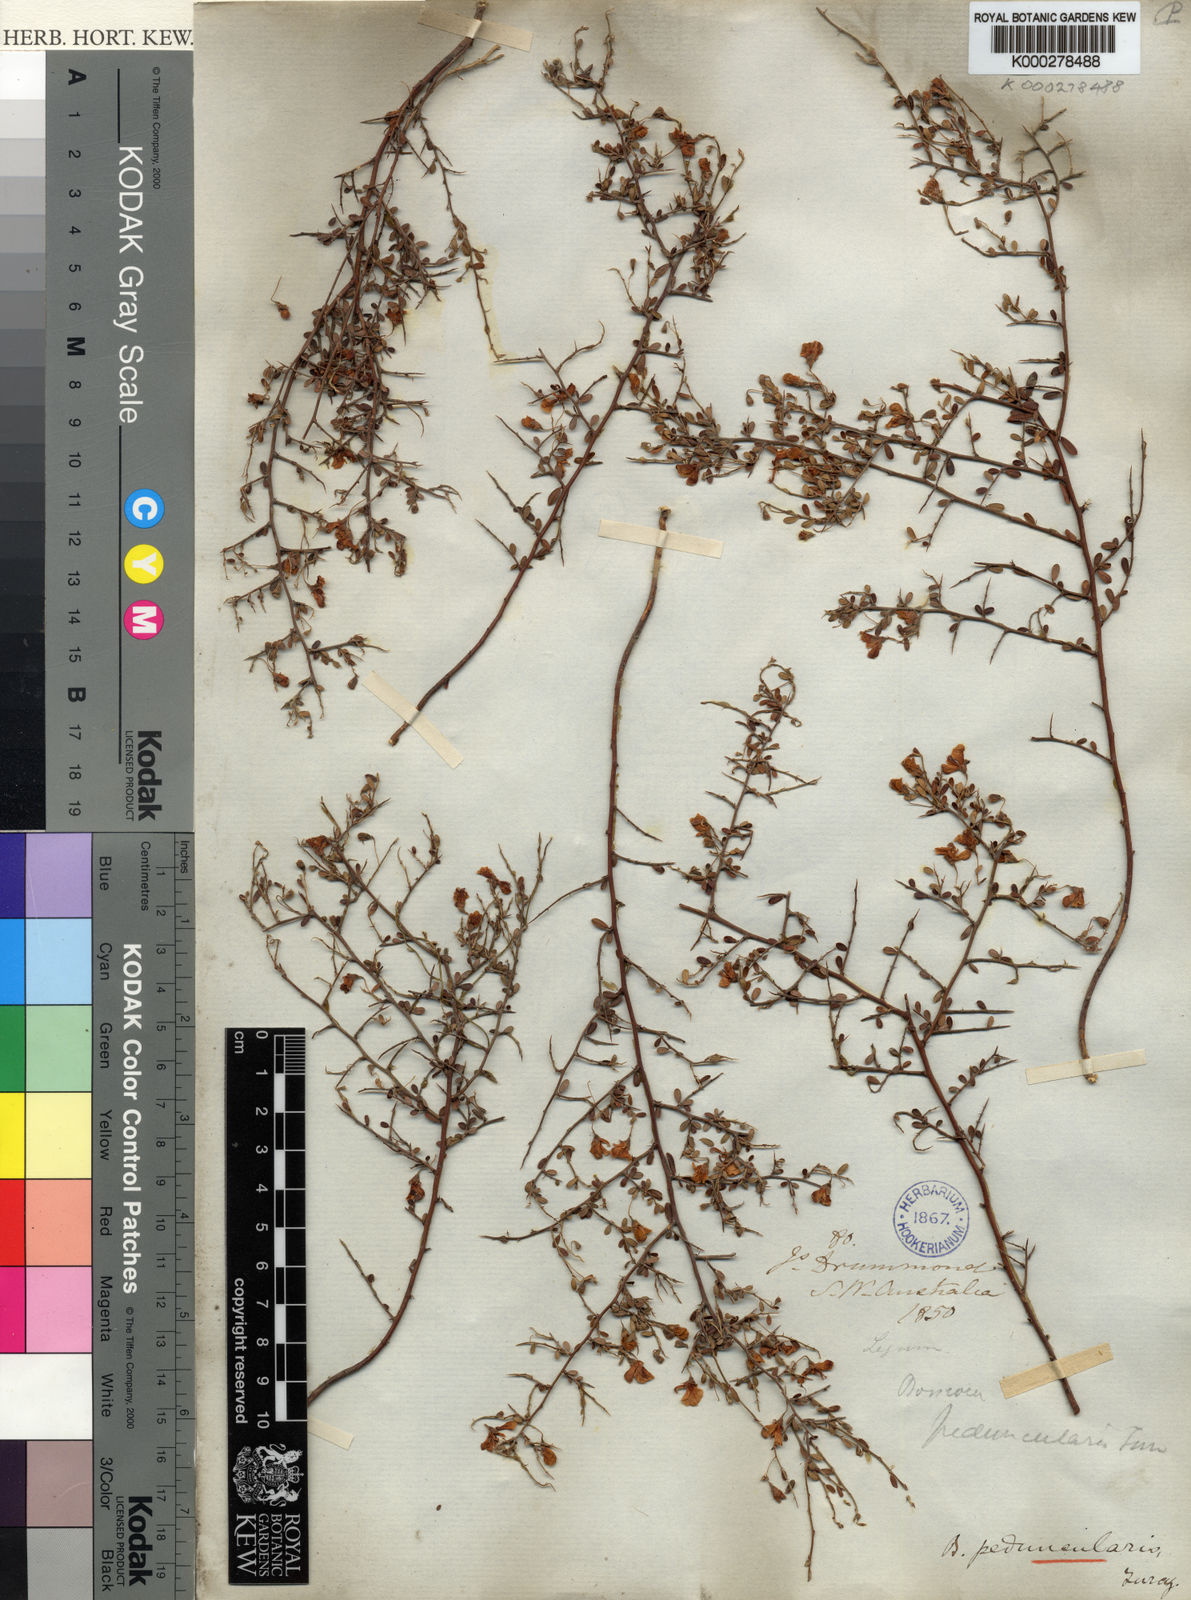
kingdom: Plantae
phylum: Tracheophyta
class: Magnoliopsida
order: Fabales
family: Fabaceae
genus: Bossiaea
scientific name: Bossiaea peduncularis
